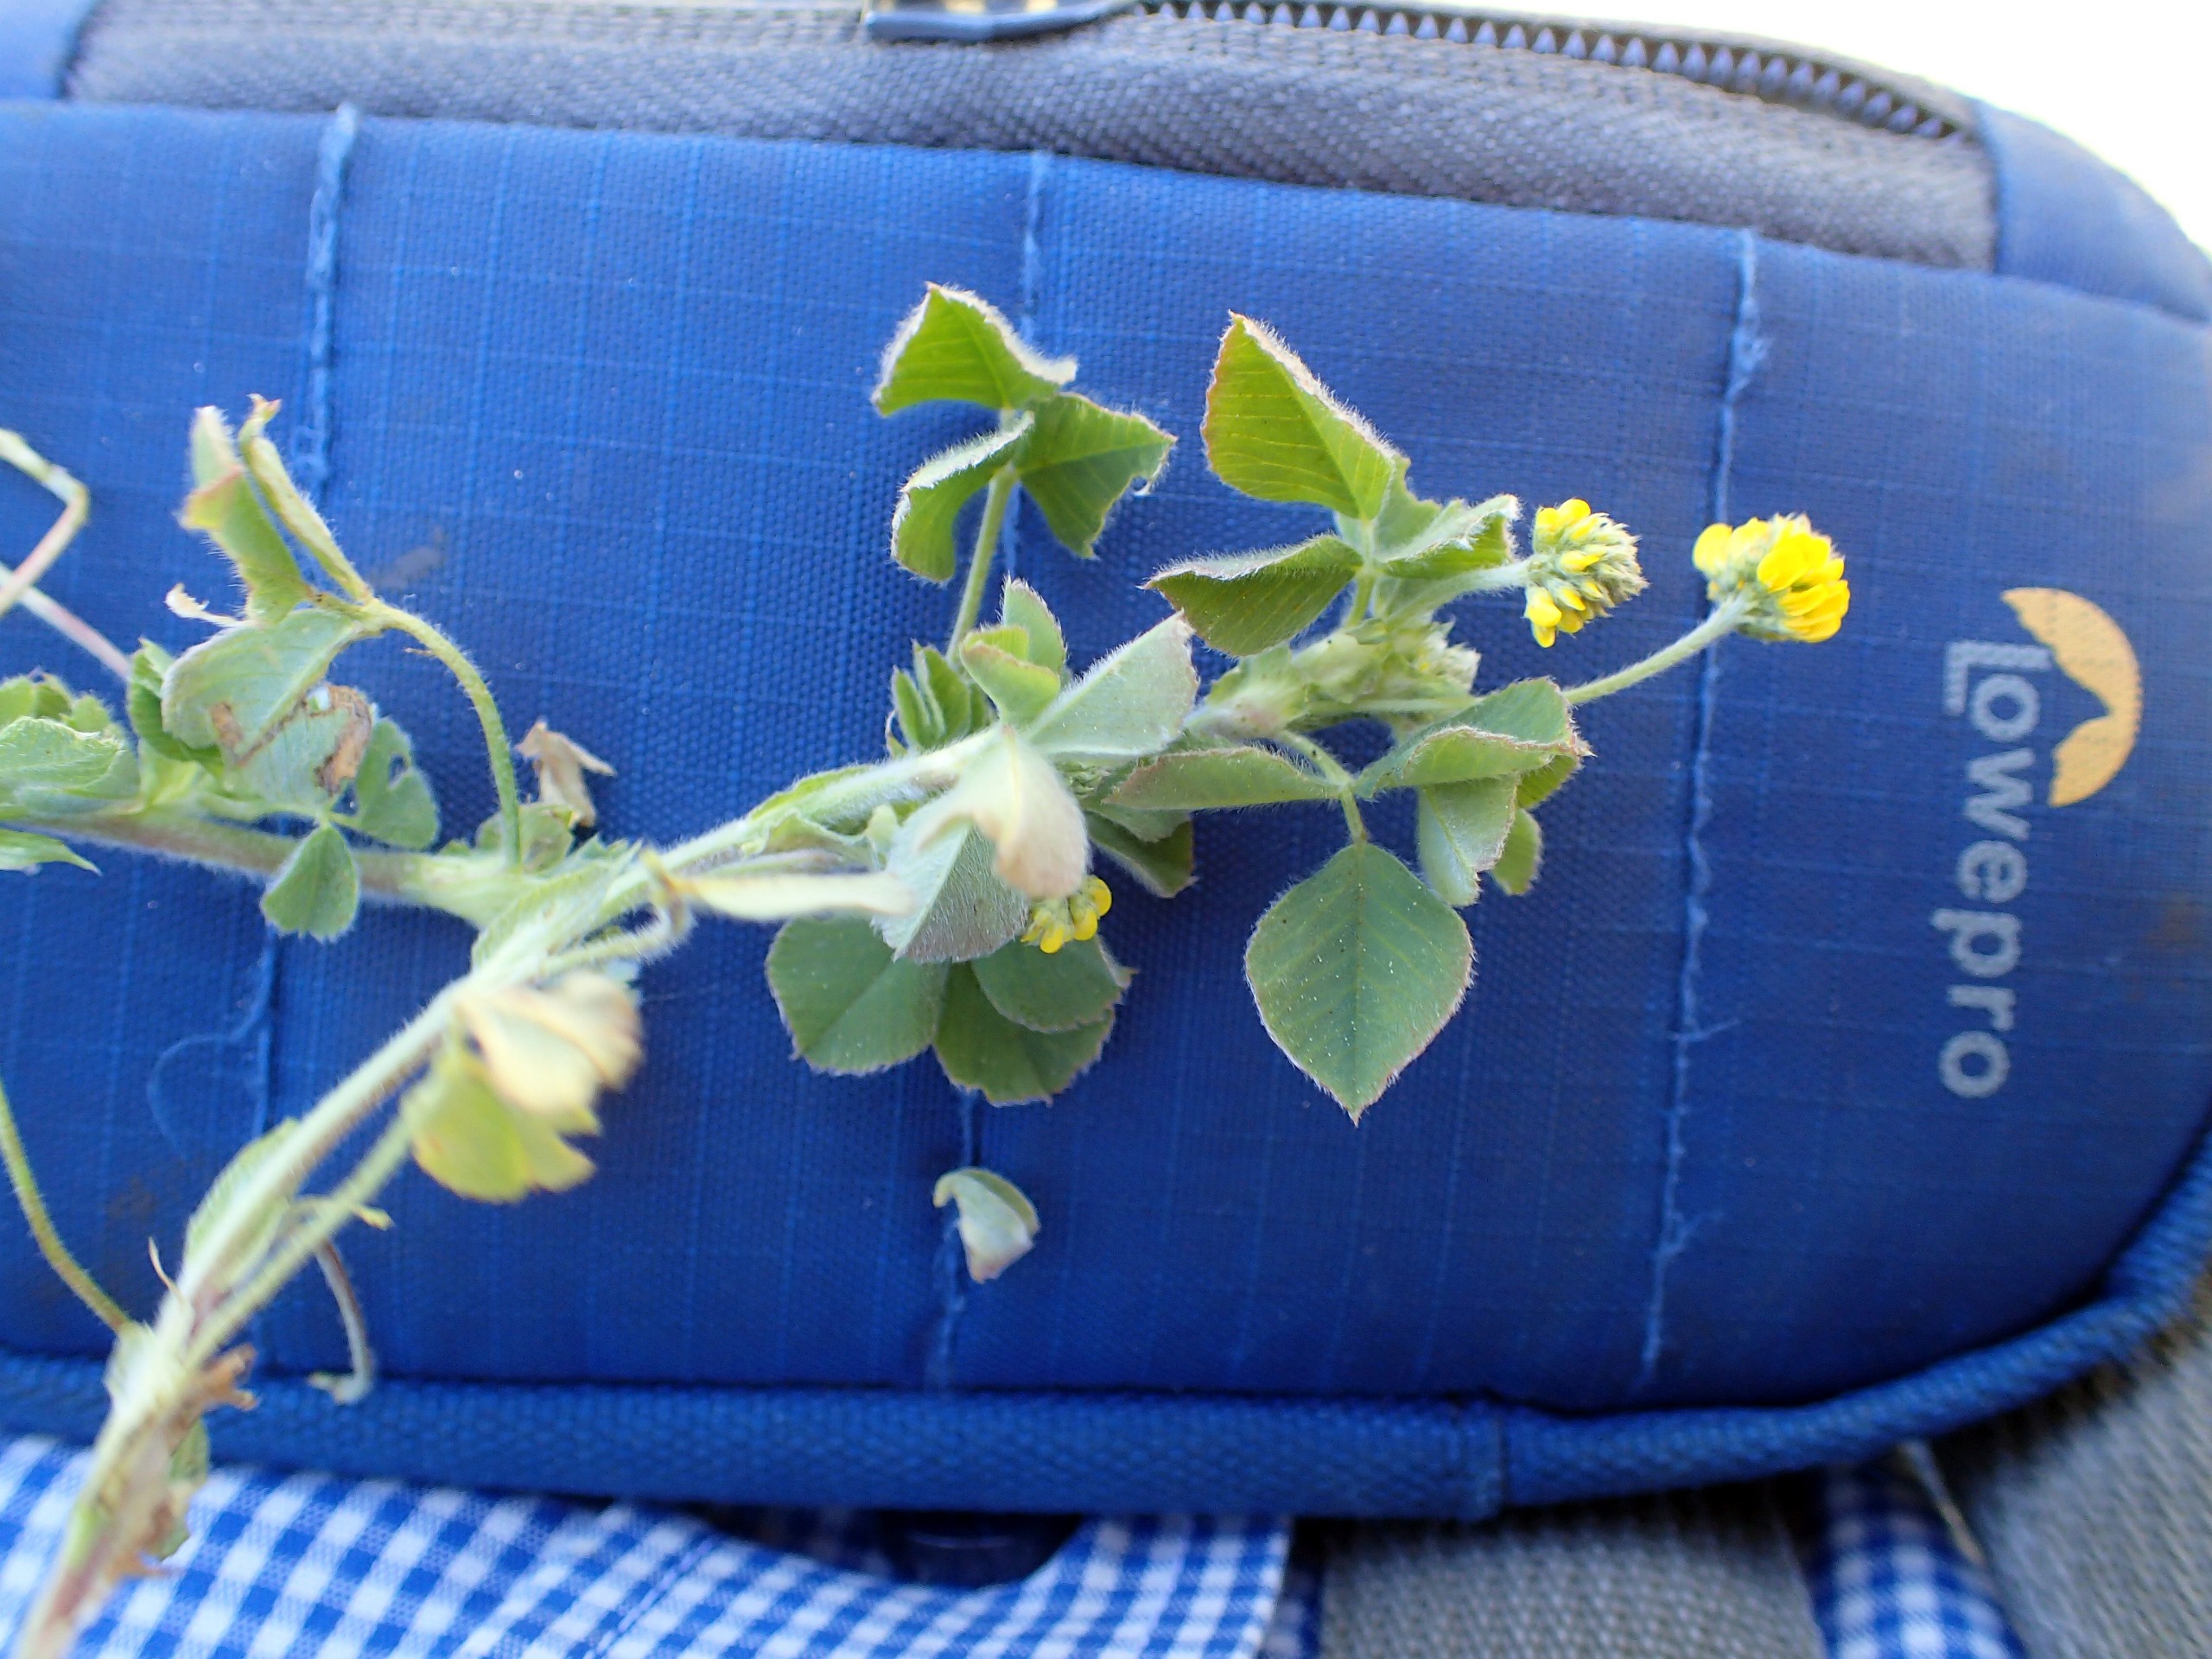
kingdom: Plantae
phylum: Tracheophyta
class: Magnoliopsida
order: Fabales
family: Fabaceae
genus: Medicago
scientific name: Medicago lupulina
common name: Humle-sneglebælg
